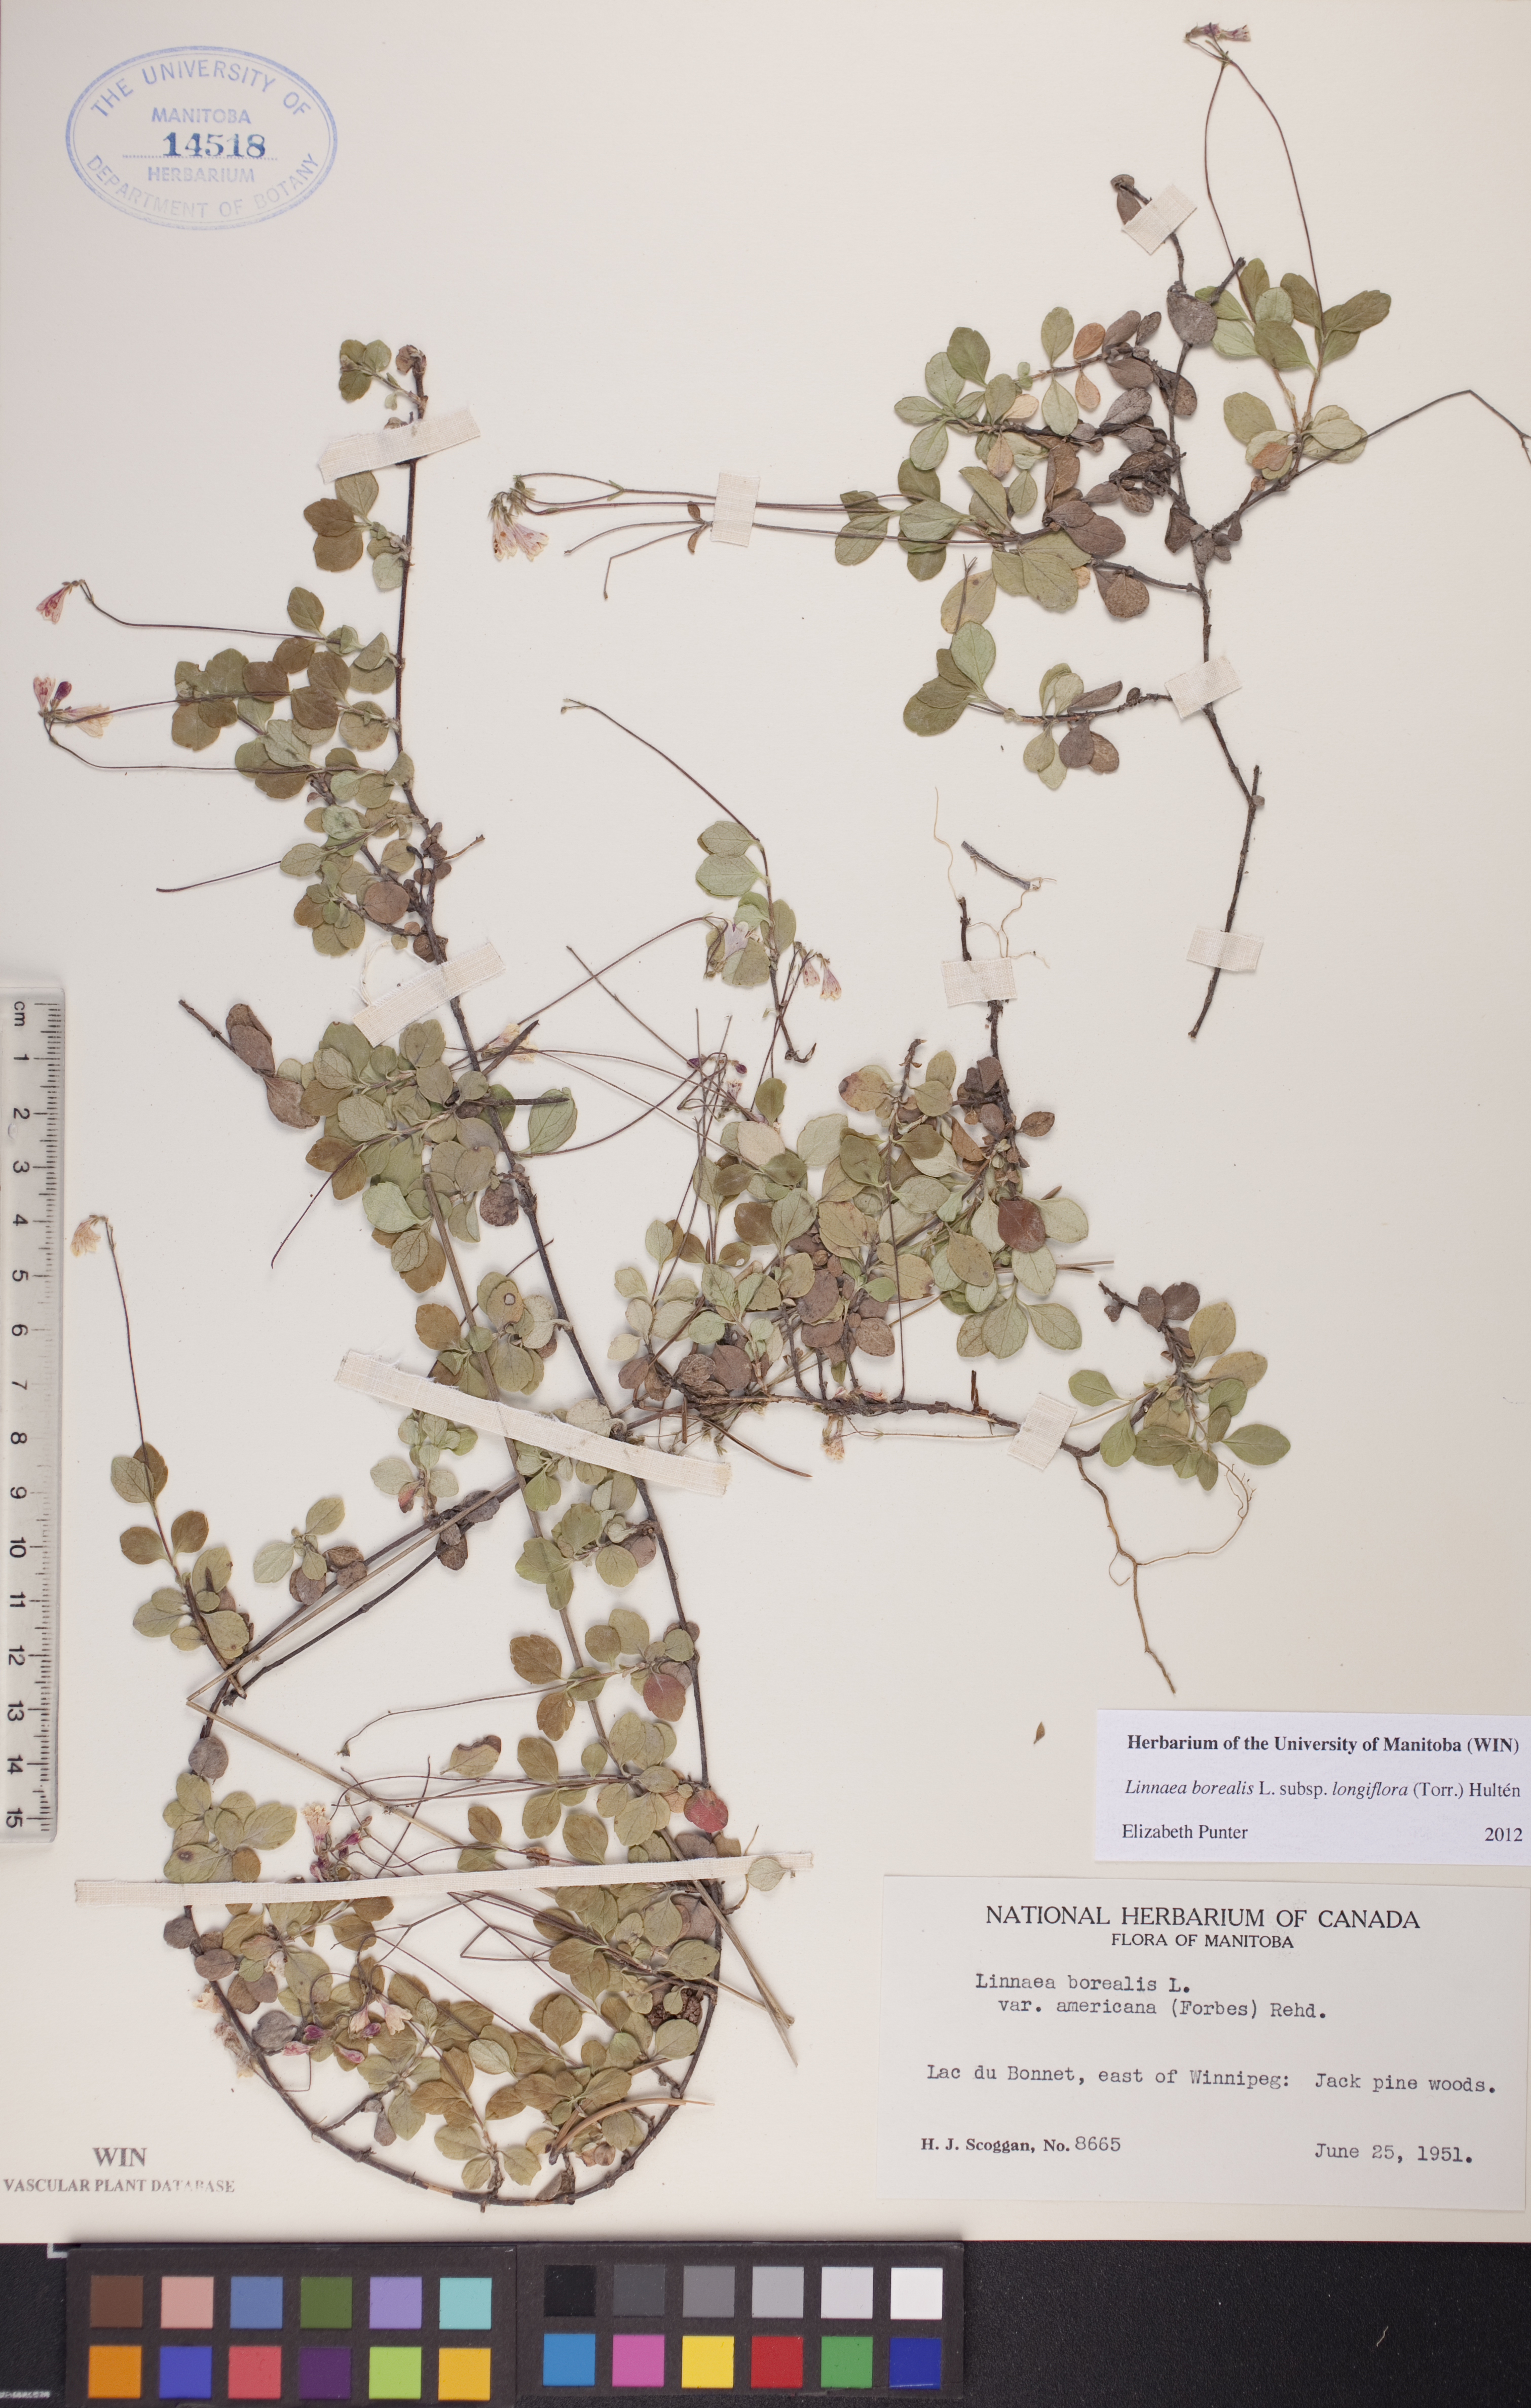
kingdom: Plantae
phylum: Tracheophyta
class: Magnoliopsida
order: Dipsacales
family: Caprifoliaceae
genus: Linnaea
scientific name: Linnaea borealis
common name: Twinflower
